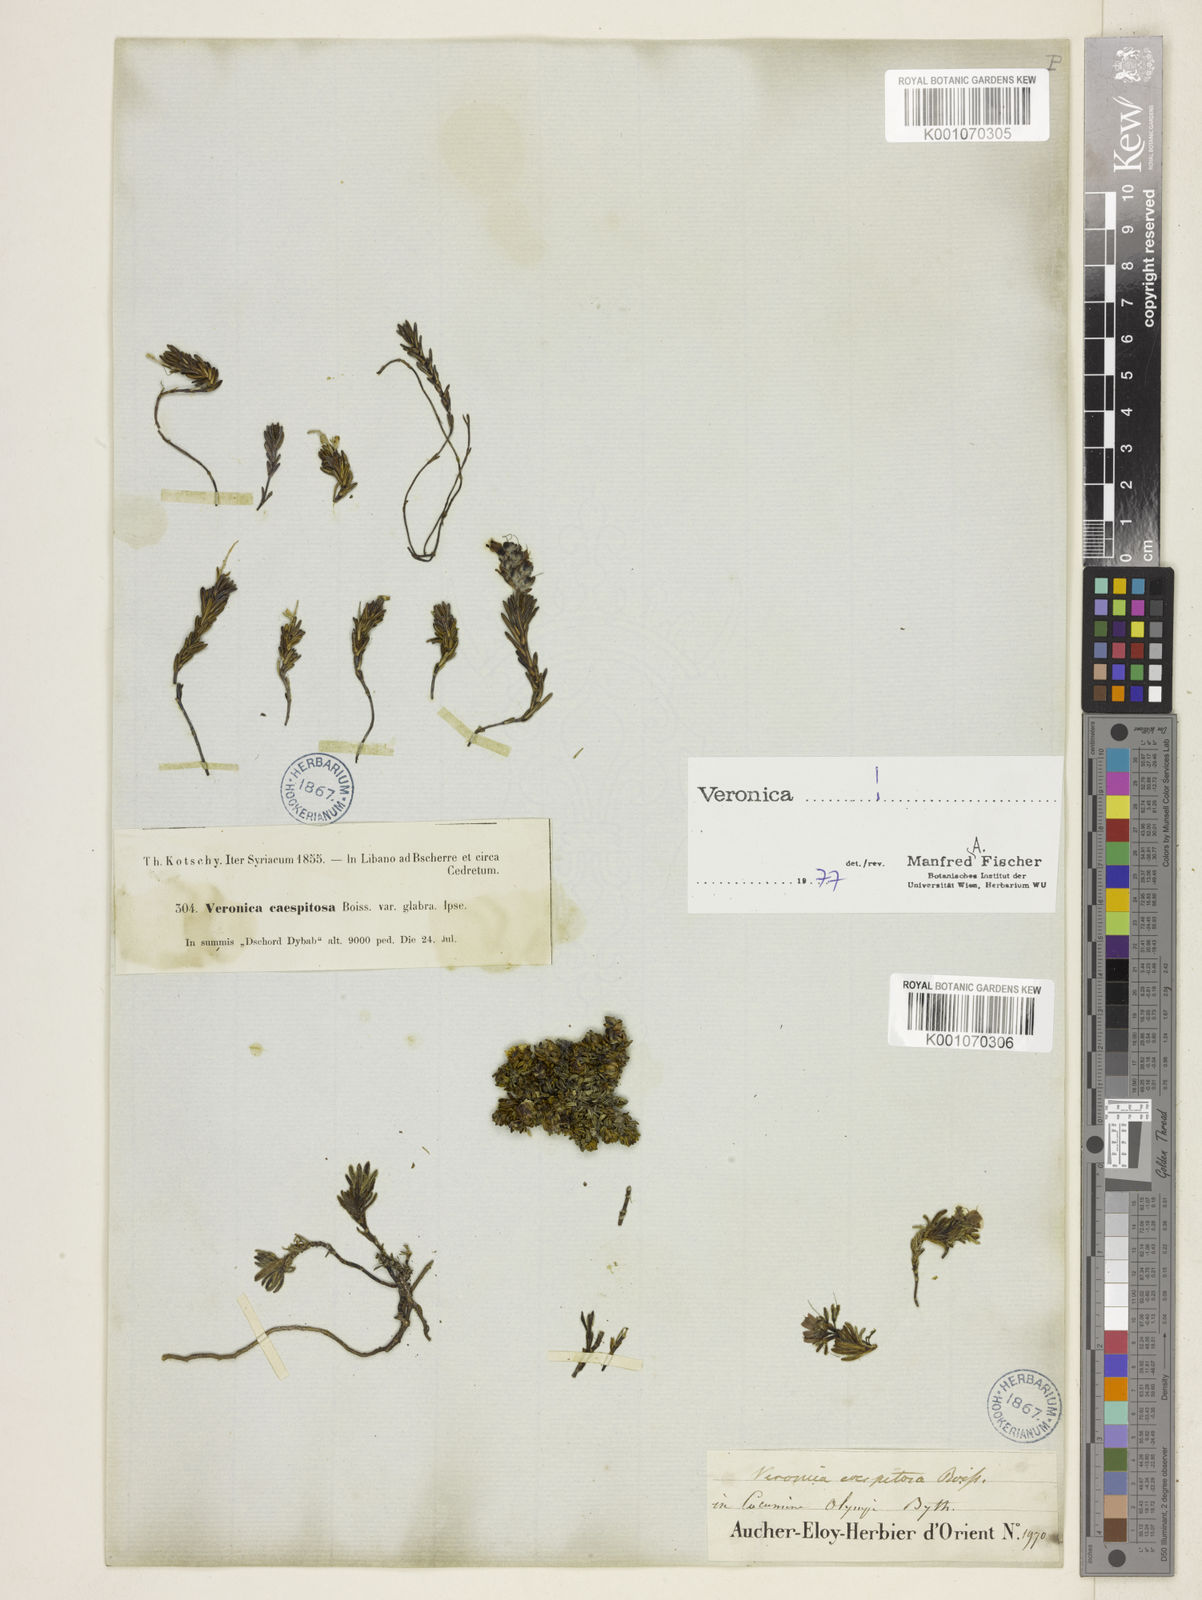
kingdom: Plantae
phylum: Tracheophyta
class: Magnoliopsida
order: Lamiales
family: Plantaginaceae
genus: Veronica
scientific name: Veronica caespitosa
